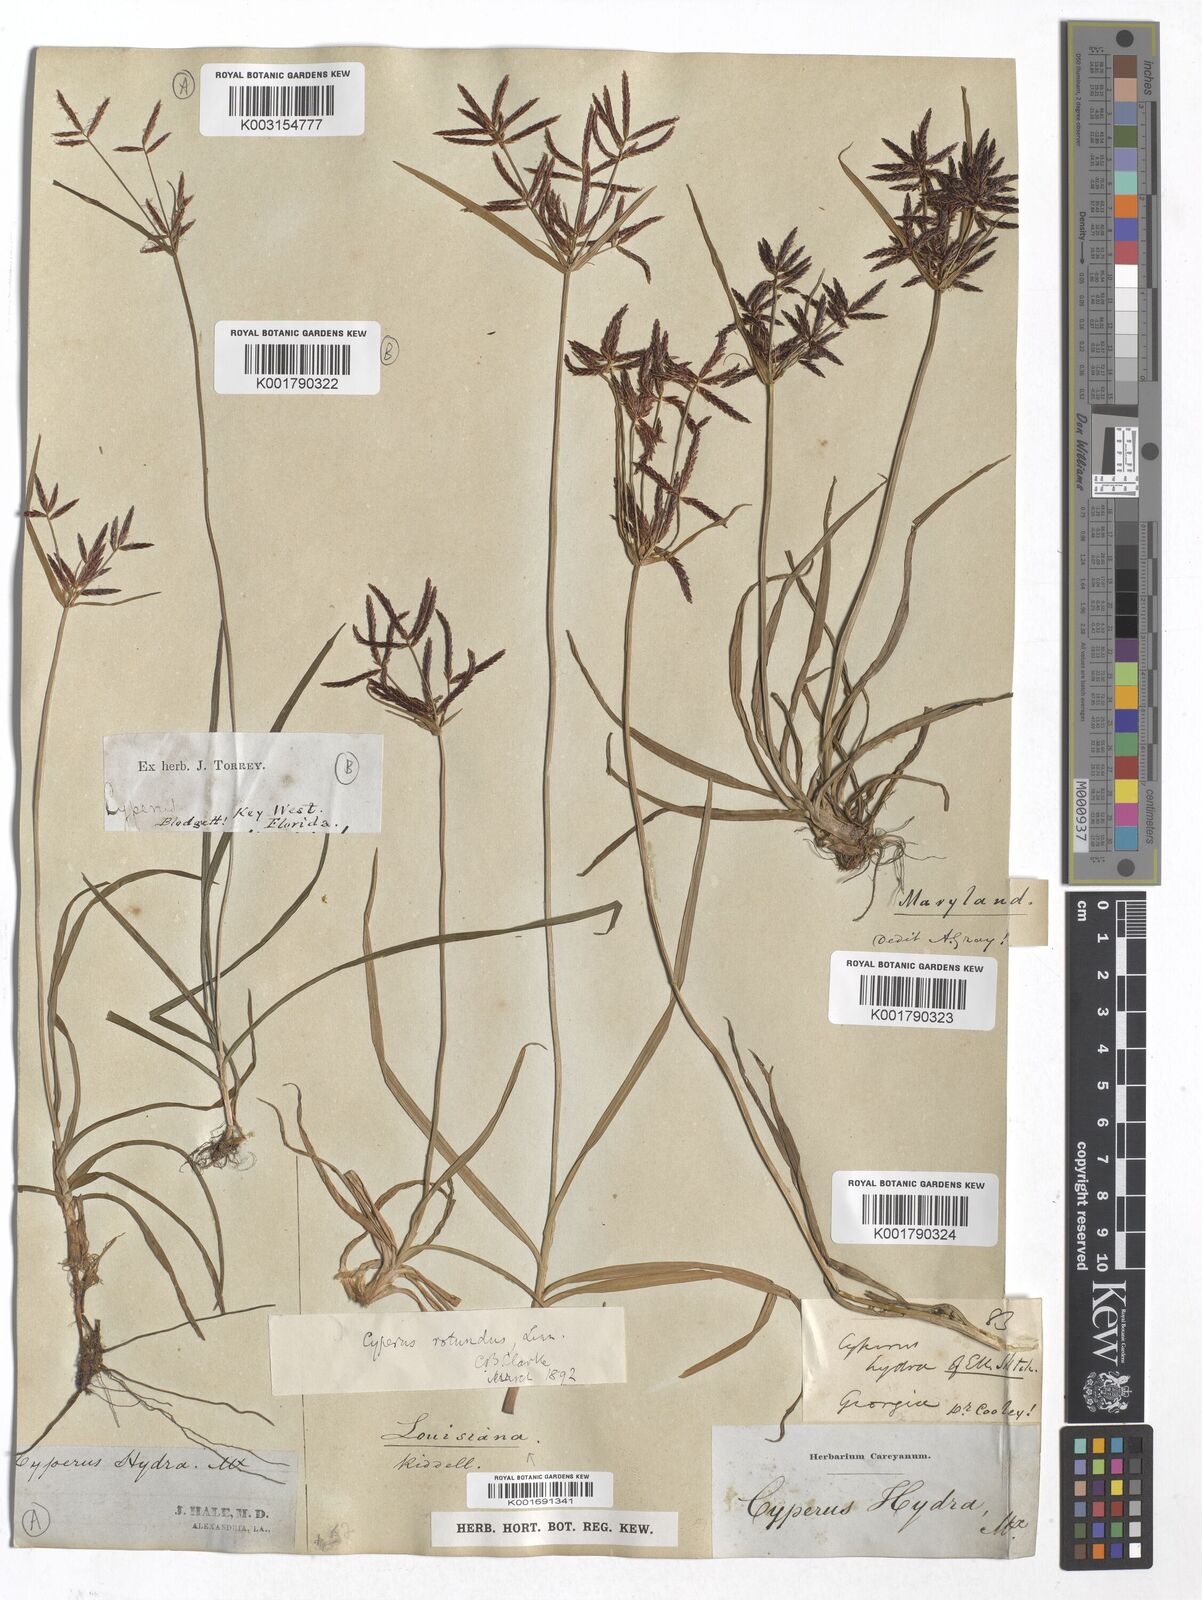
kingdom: Plantae
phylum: Tracheophyta
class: Liliopsida
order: Poales
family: Cyperaceae
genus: Cyperus
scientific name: Cyperus rotundus
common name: Nutgrass
